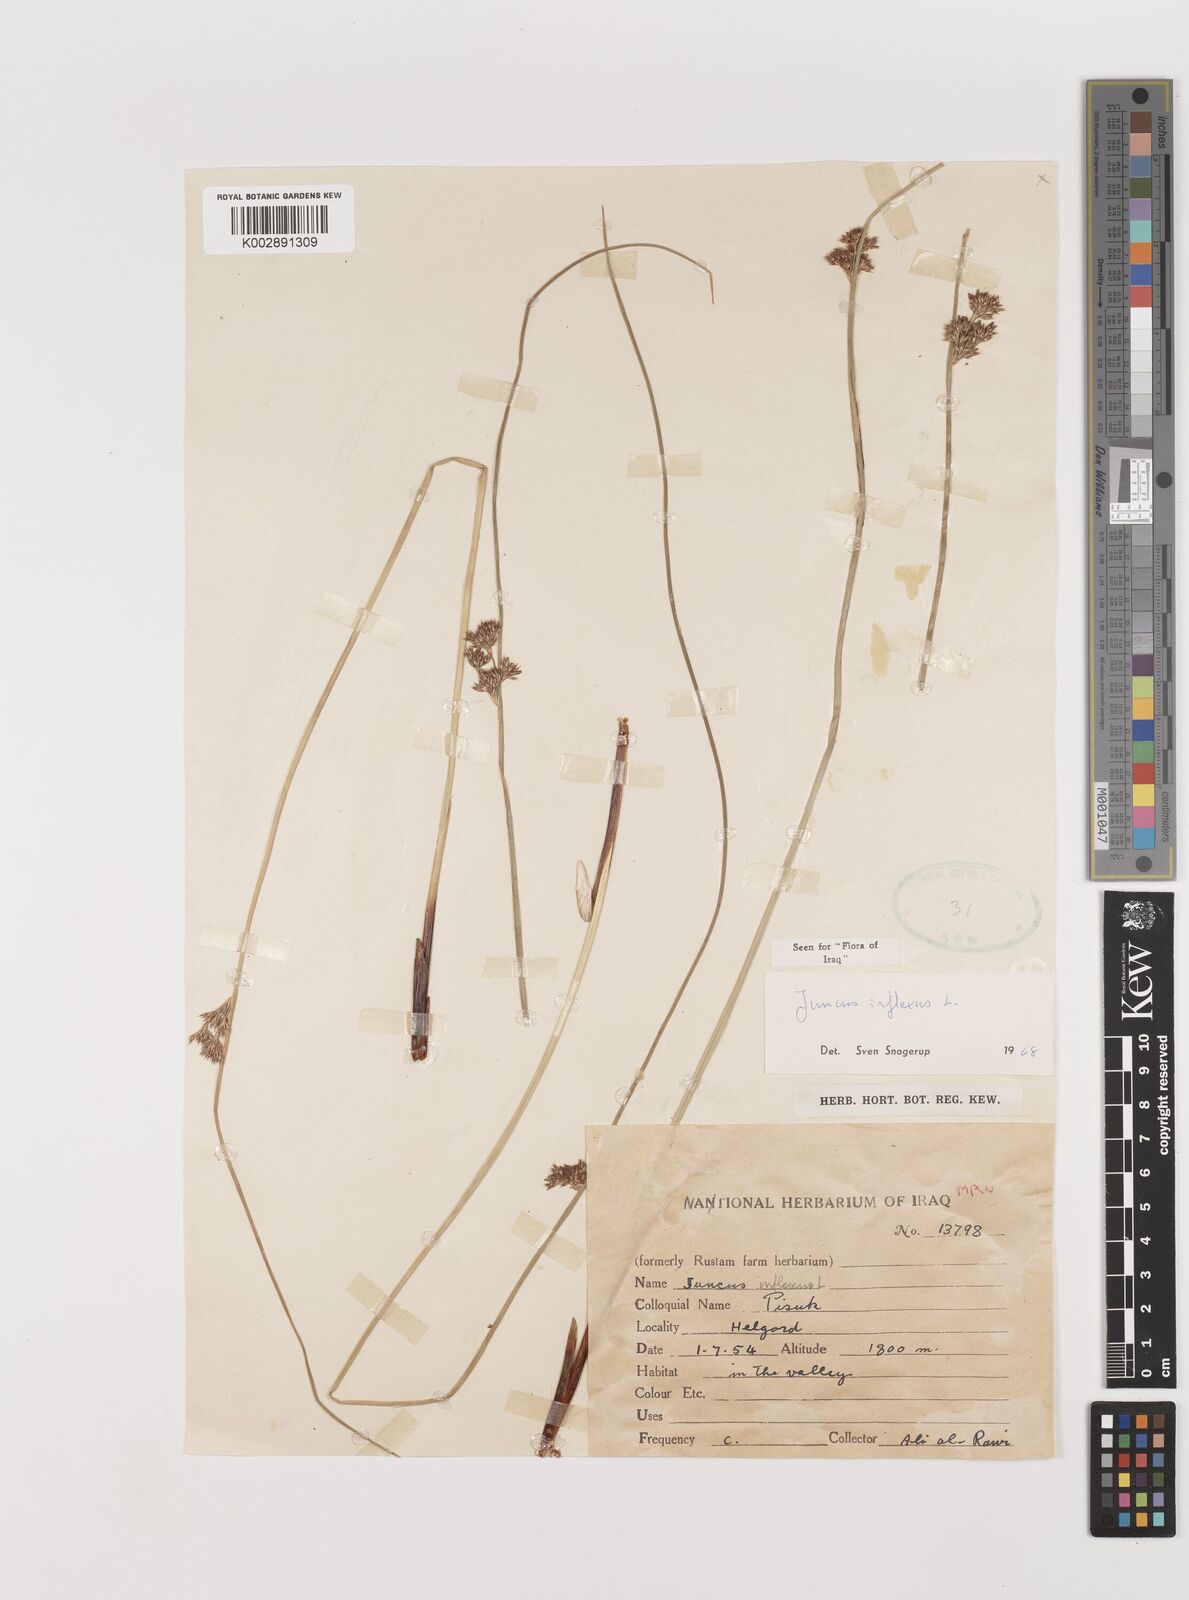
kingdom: Plantae
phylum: Tracheophyta
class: Liliopsida
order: Poales
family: Juncaceae
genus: Juncus
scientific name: Juncus inflexus
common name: Hard rush
